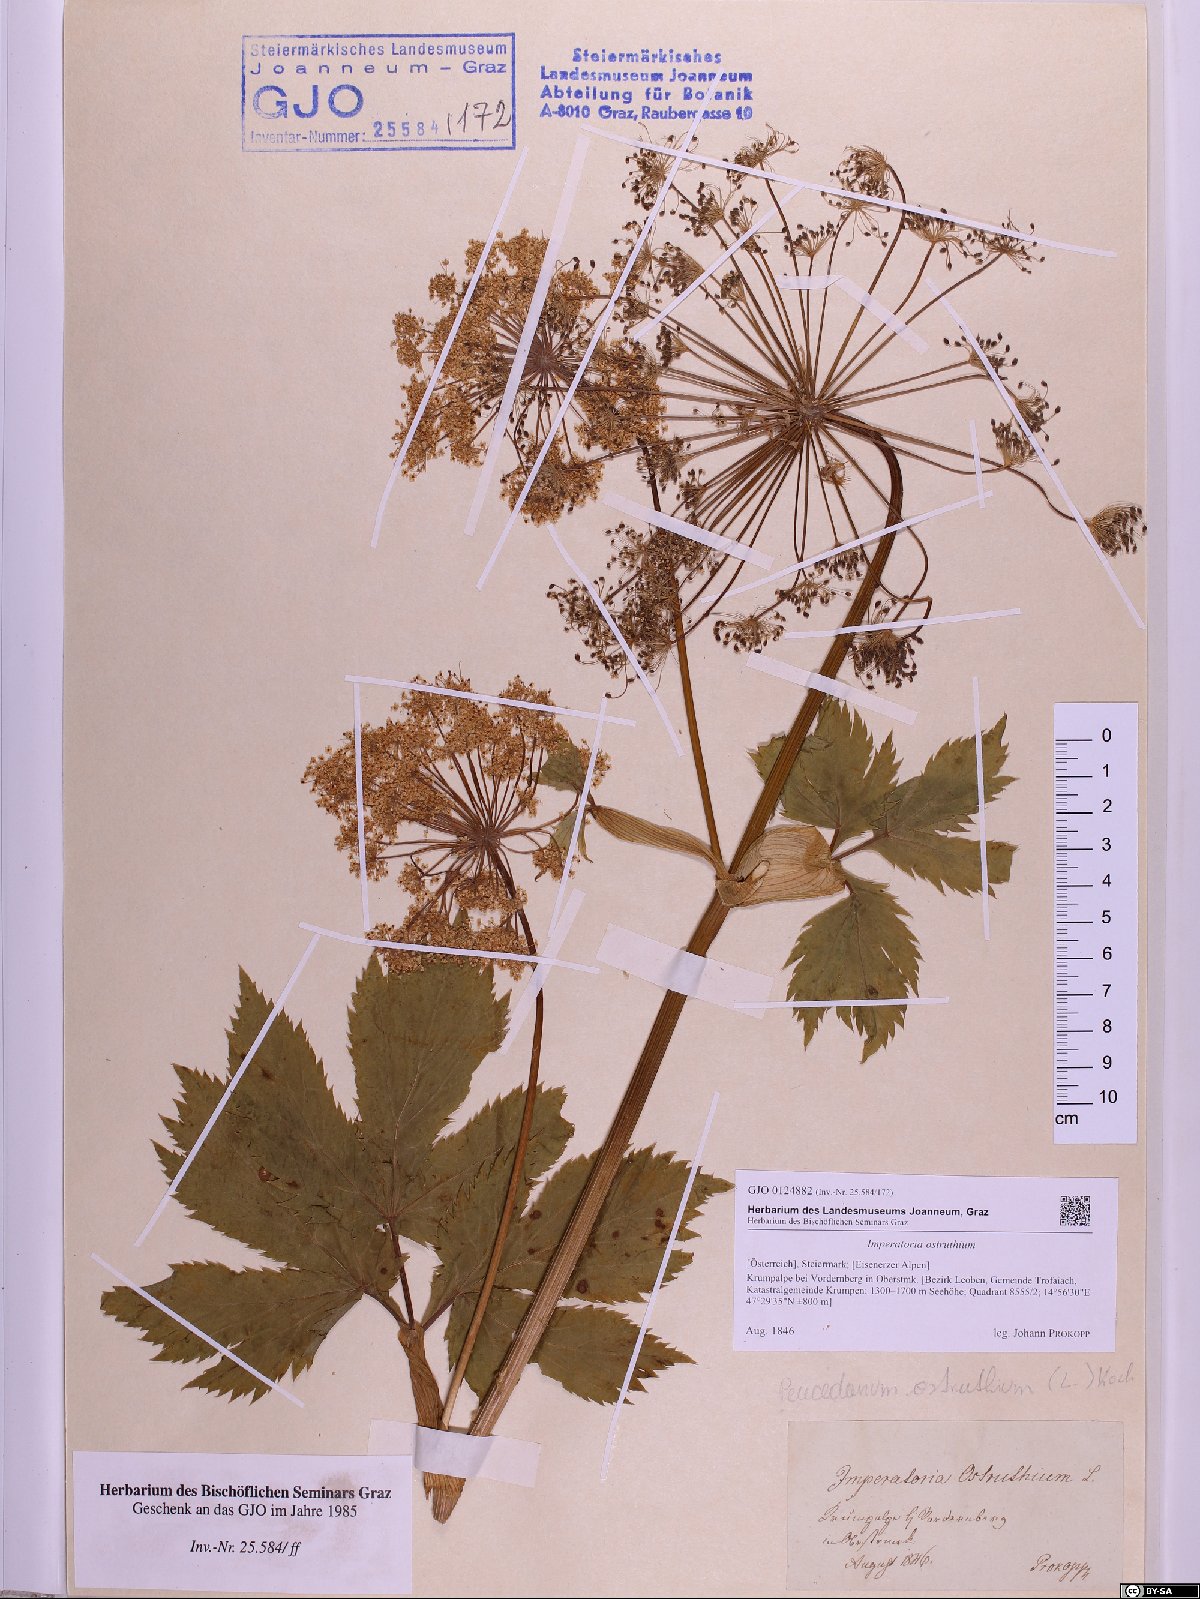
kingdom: Plantae
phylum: Tracheophyta
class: Magnoliopsida
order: Apiales
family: Apiaceae
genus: Imperatoria
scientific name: Imperatoria ostruthium
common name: Masterwort
